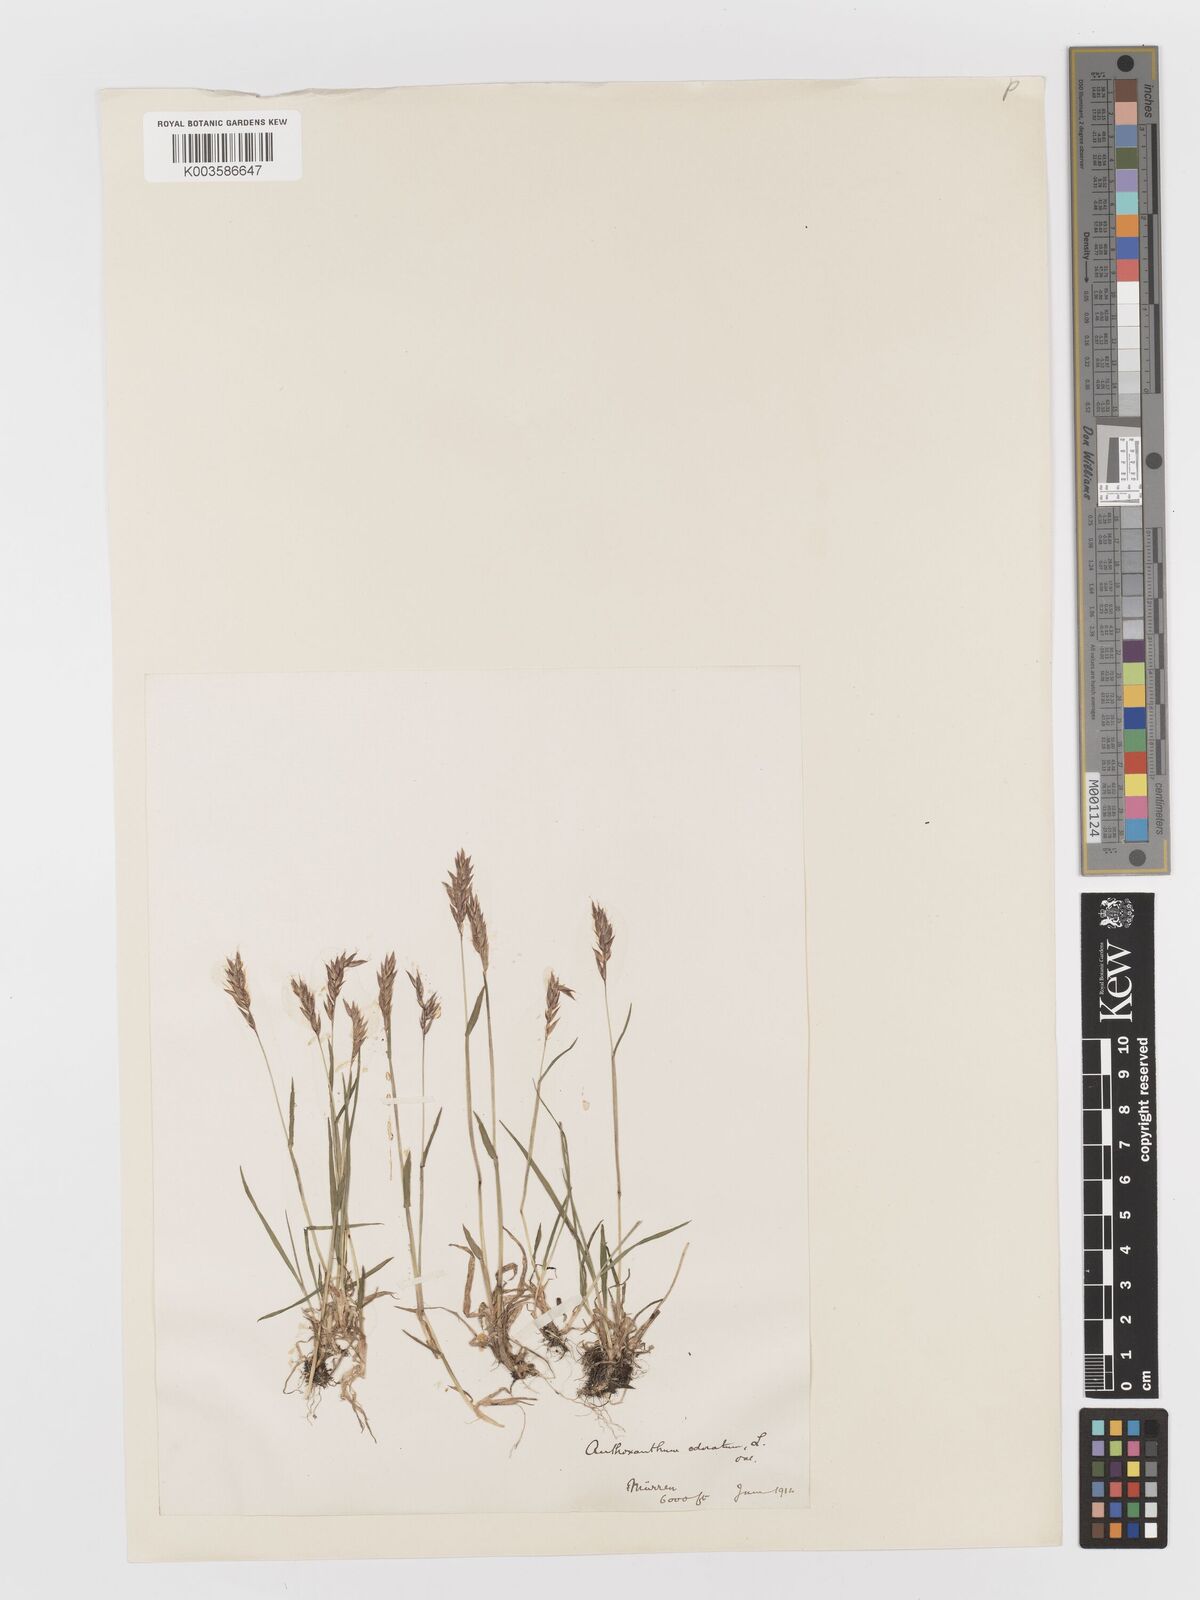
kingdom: Plantae
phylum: Tracheophyta
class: Liliopsida
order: Poales
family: Poaceae
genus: Anthoxanthum
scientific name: Anthoxanthum odoratum
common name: Sweet vernalgrass
